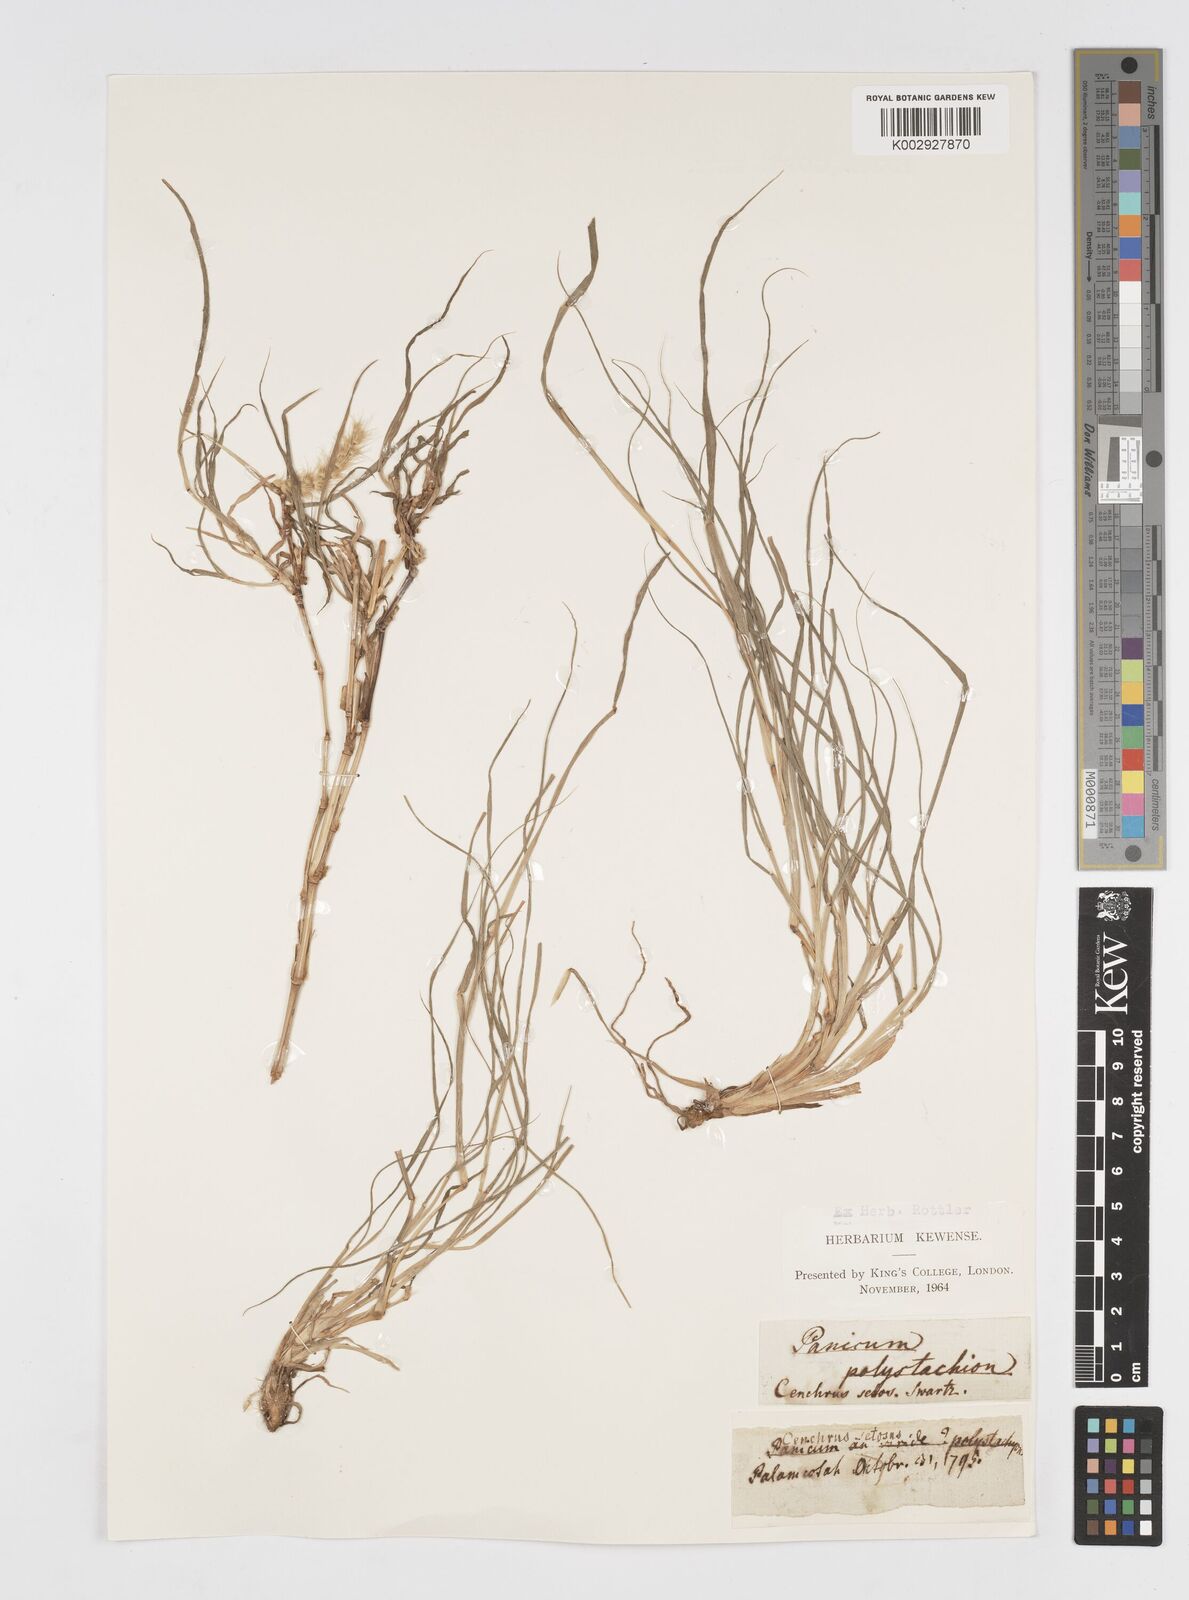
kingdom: Plantae
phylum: Tracheophyta
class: Liliopsida
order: Poales
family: Poaceae
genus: Cenchrus
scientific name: Cenchrus ciliaris
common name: Buffelgrass
